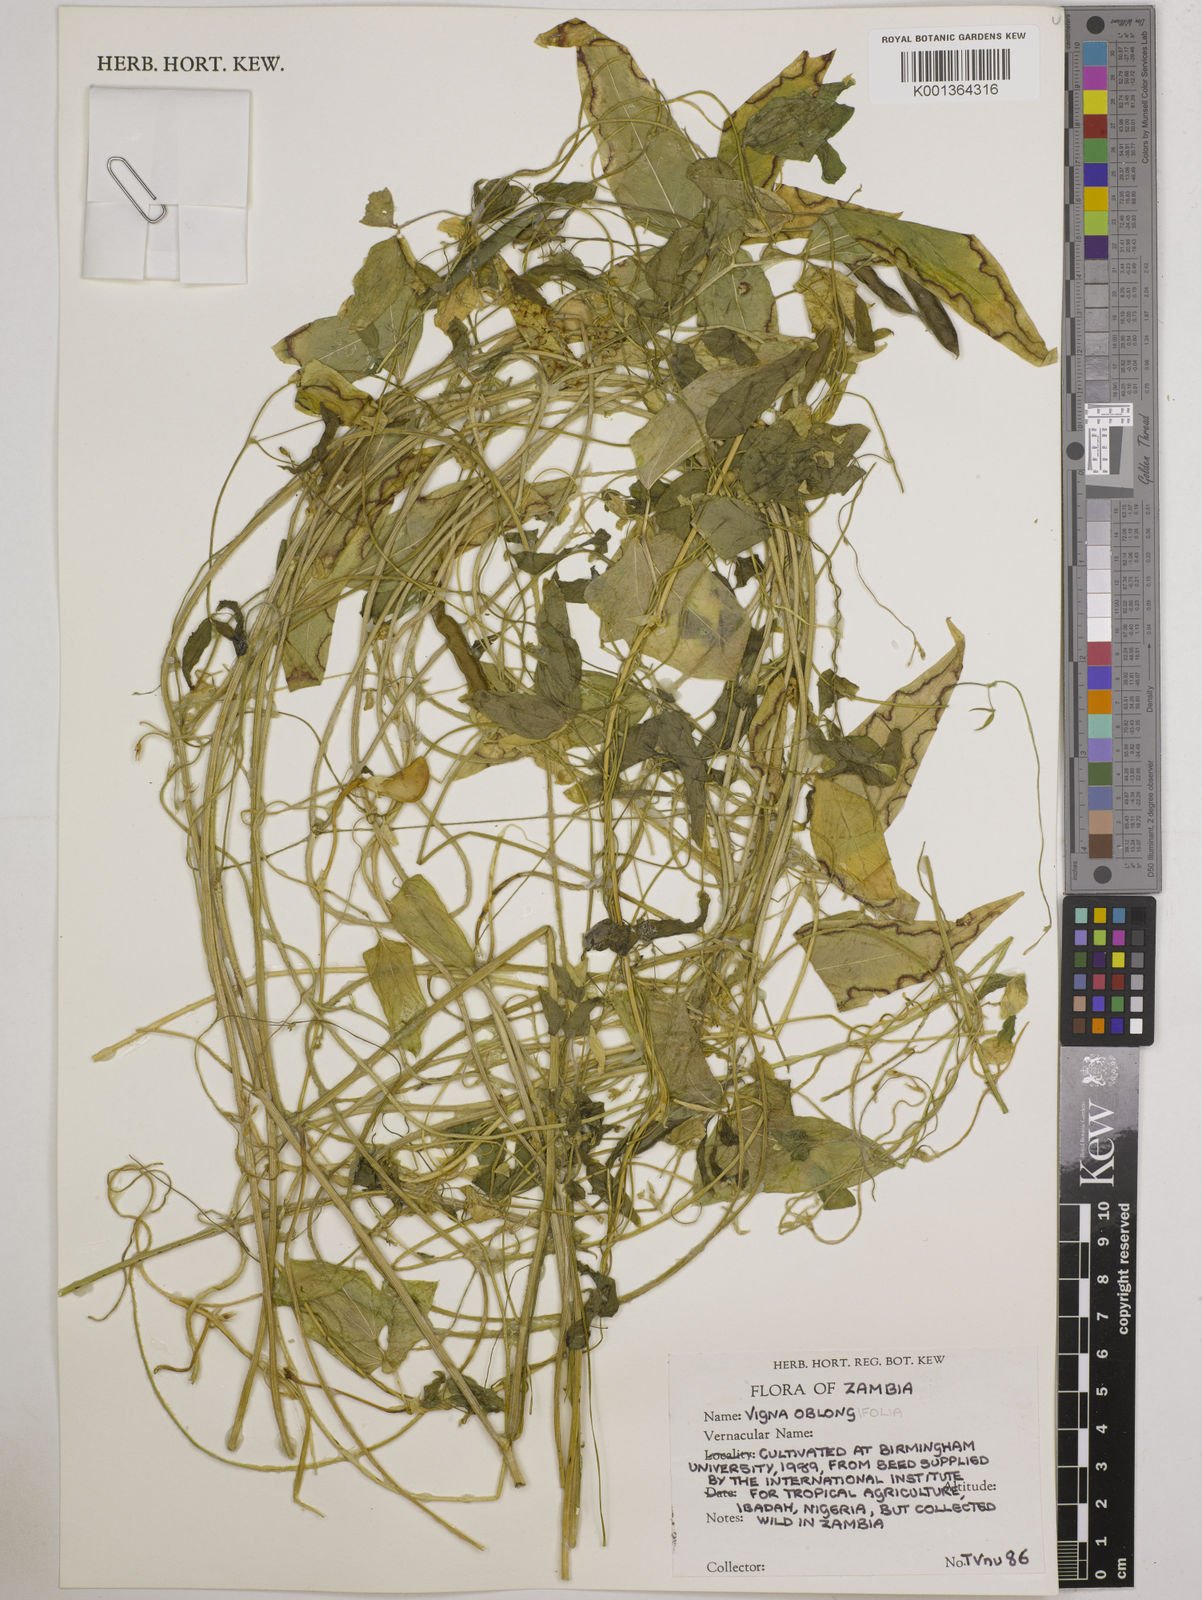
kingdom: Plantae
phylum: Tracheophyta
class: Magnoliopsida
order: Fabales
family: Fabaceae
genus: Vigna
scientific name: Vigna
